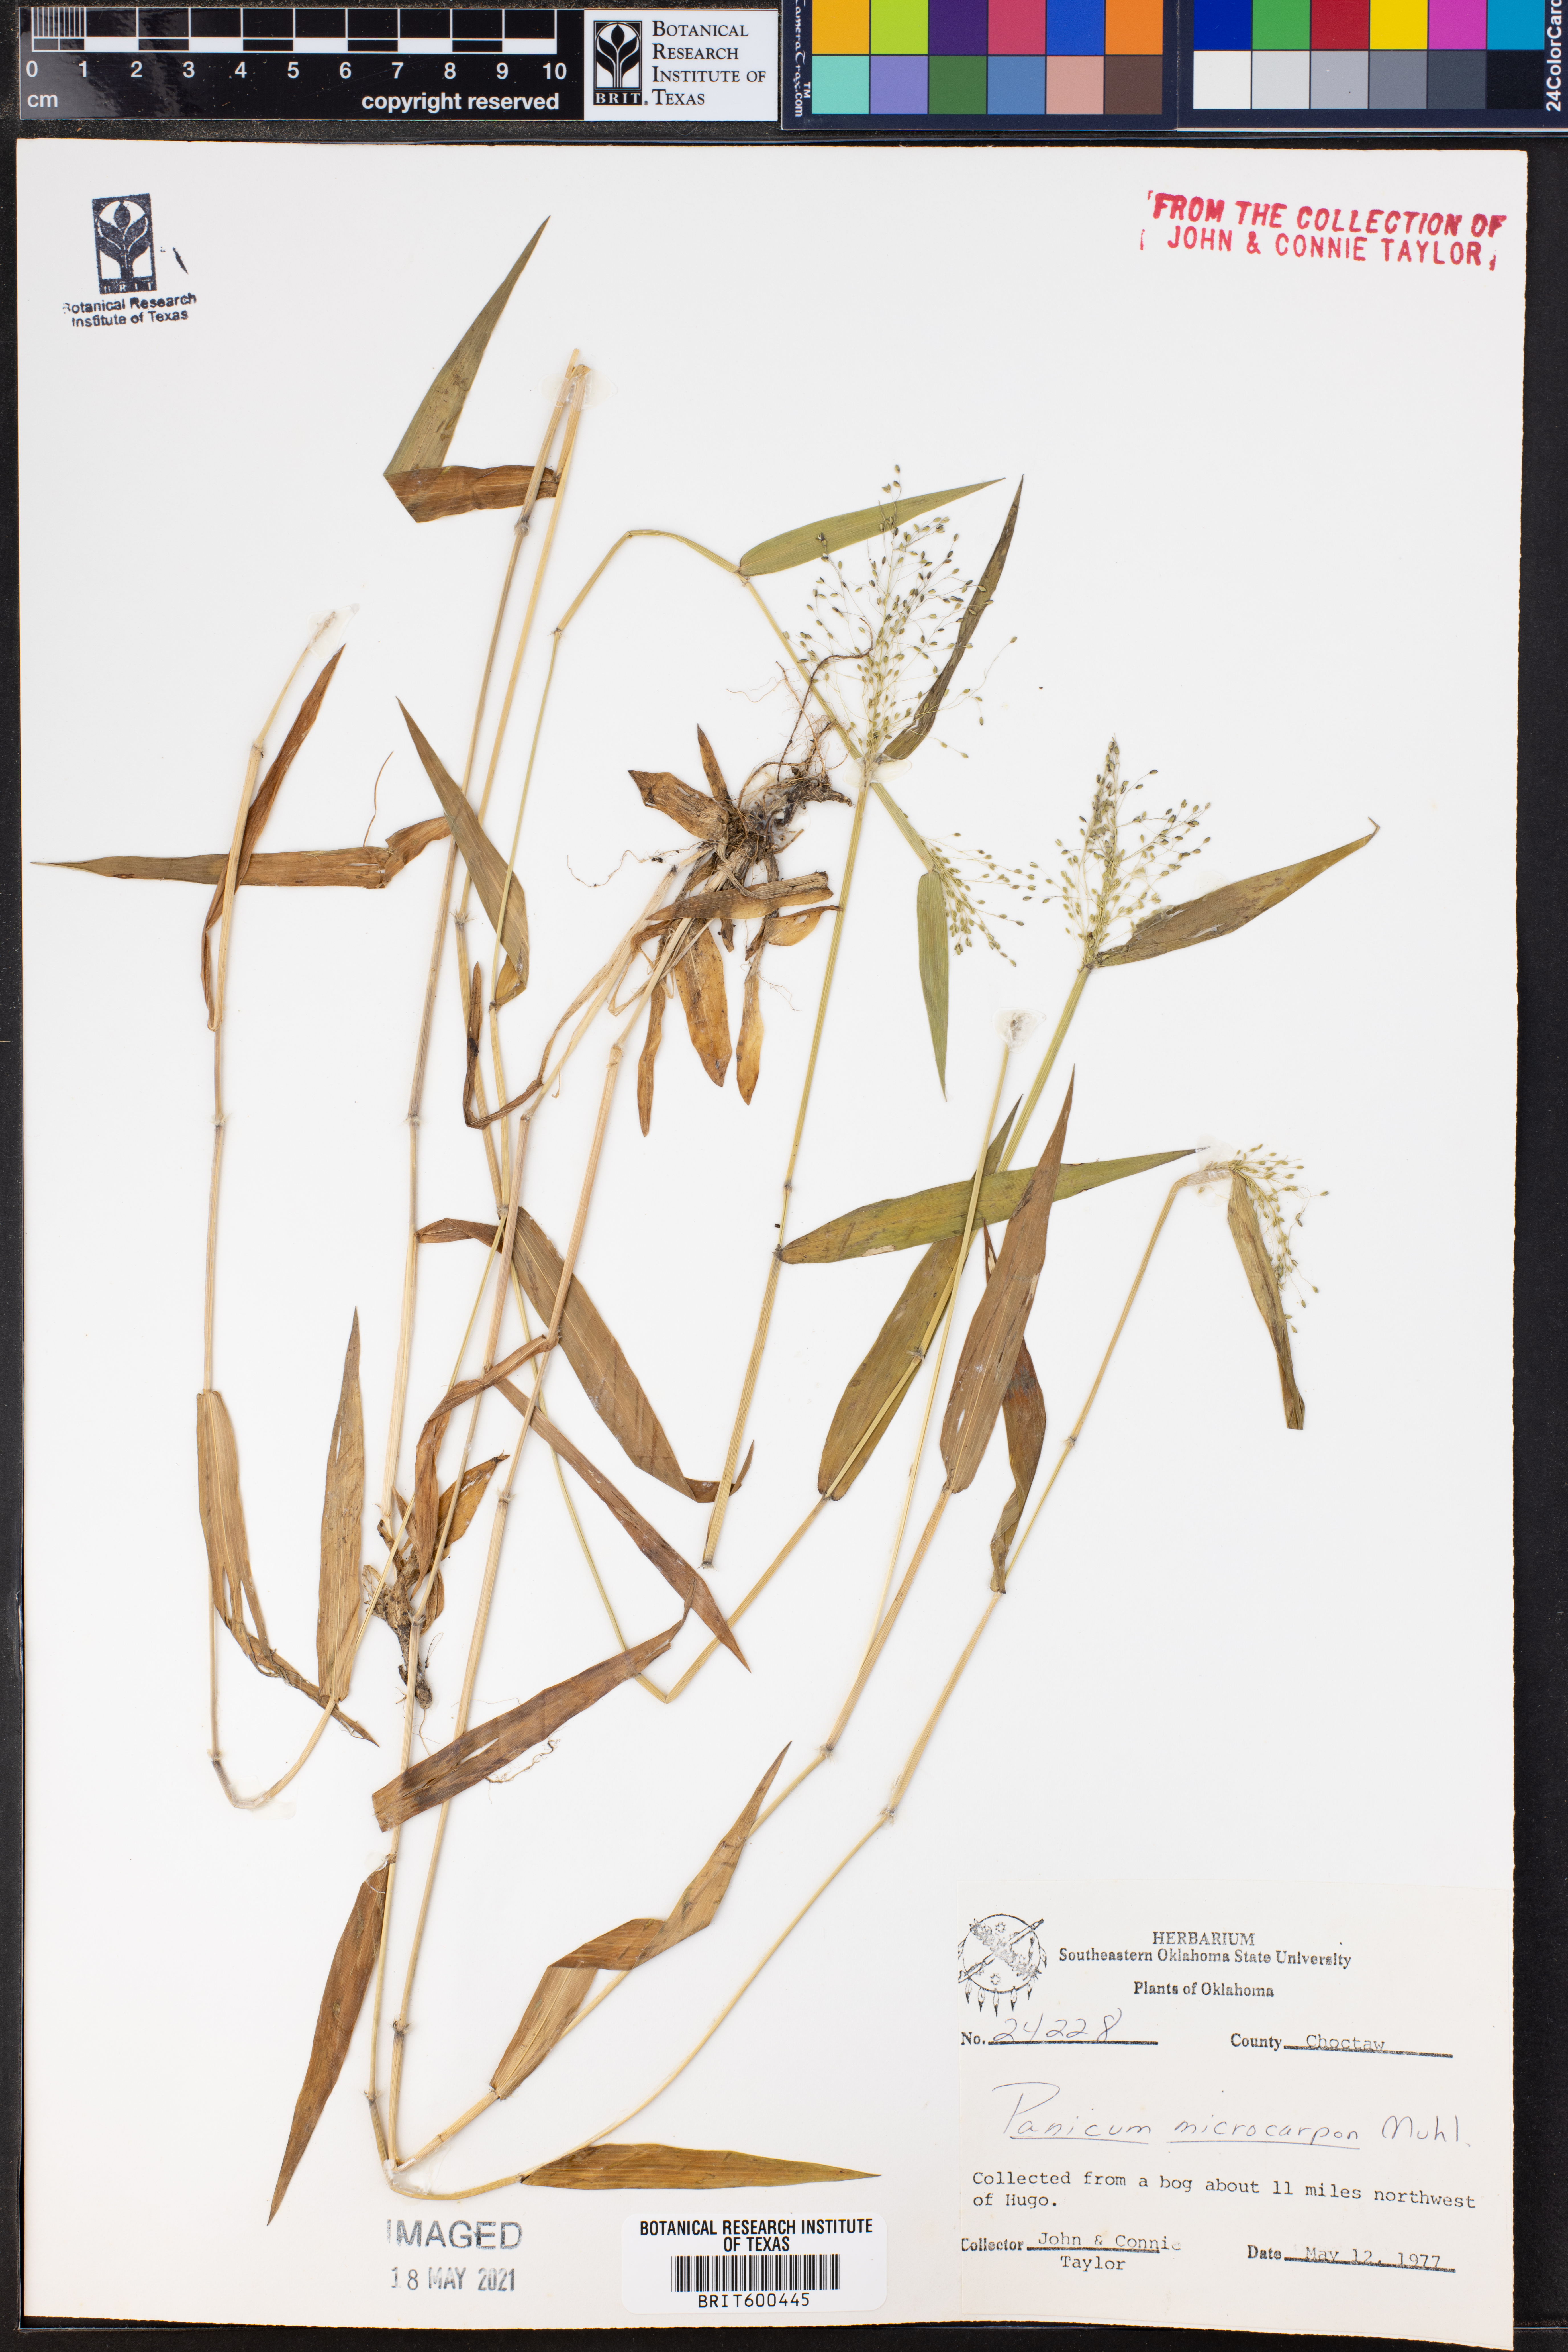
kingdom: Plantae
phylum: Tracheophyta
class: Liliopsida
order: Poales
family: Poaceae
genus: Dichanthelium
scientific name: Dichanthelium polyanthes
